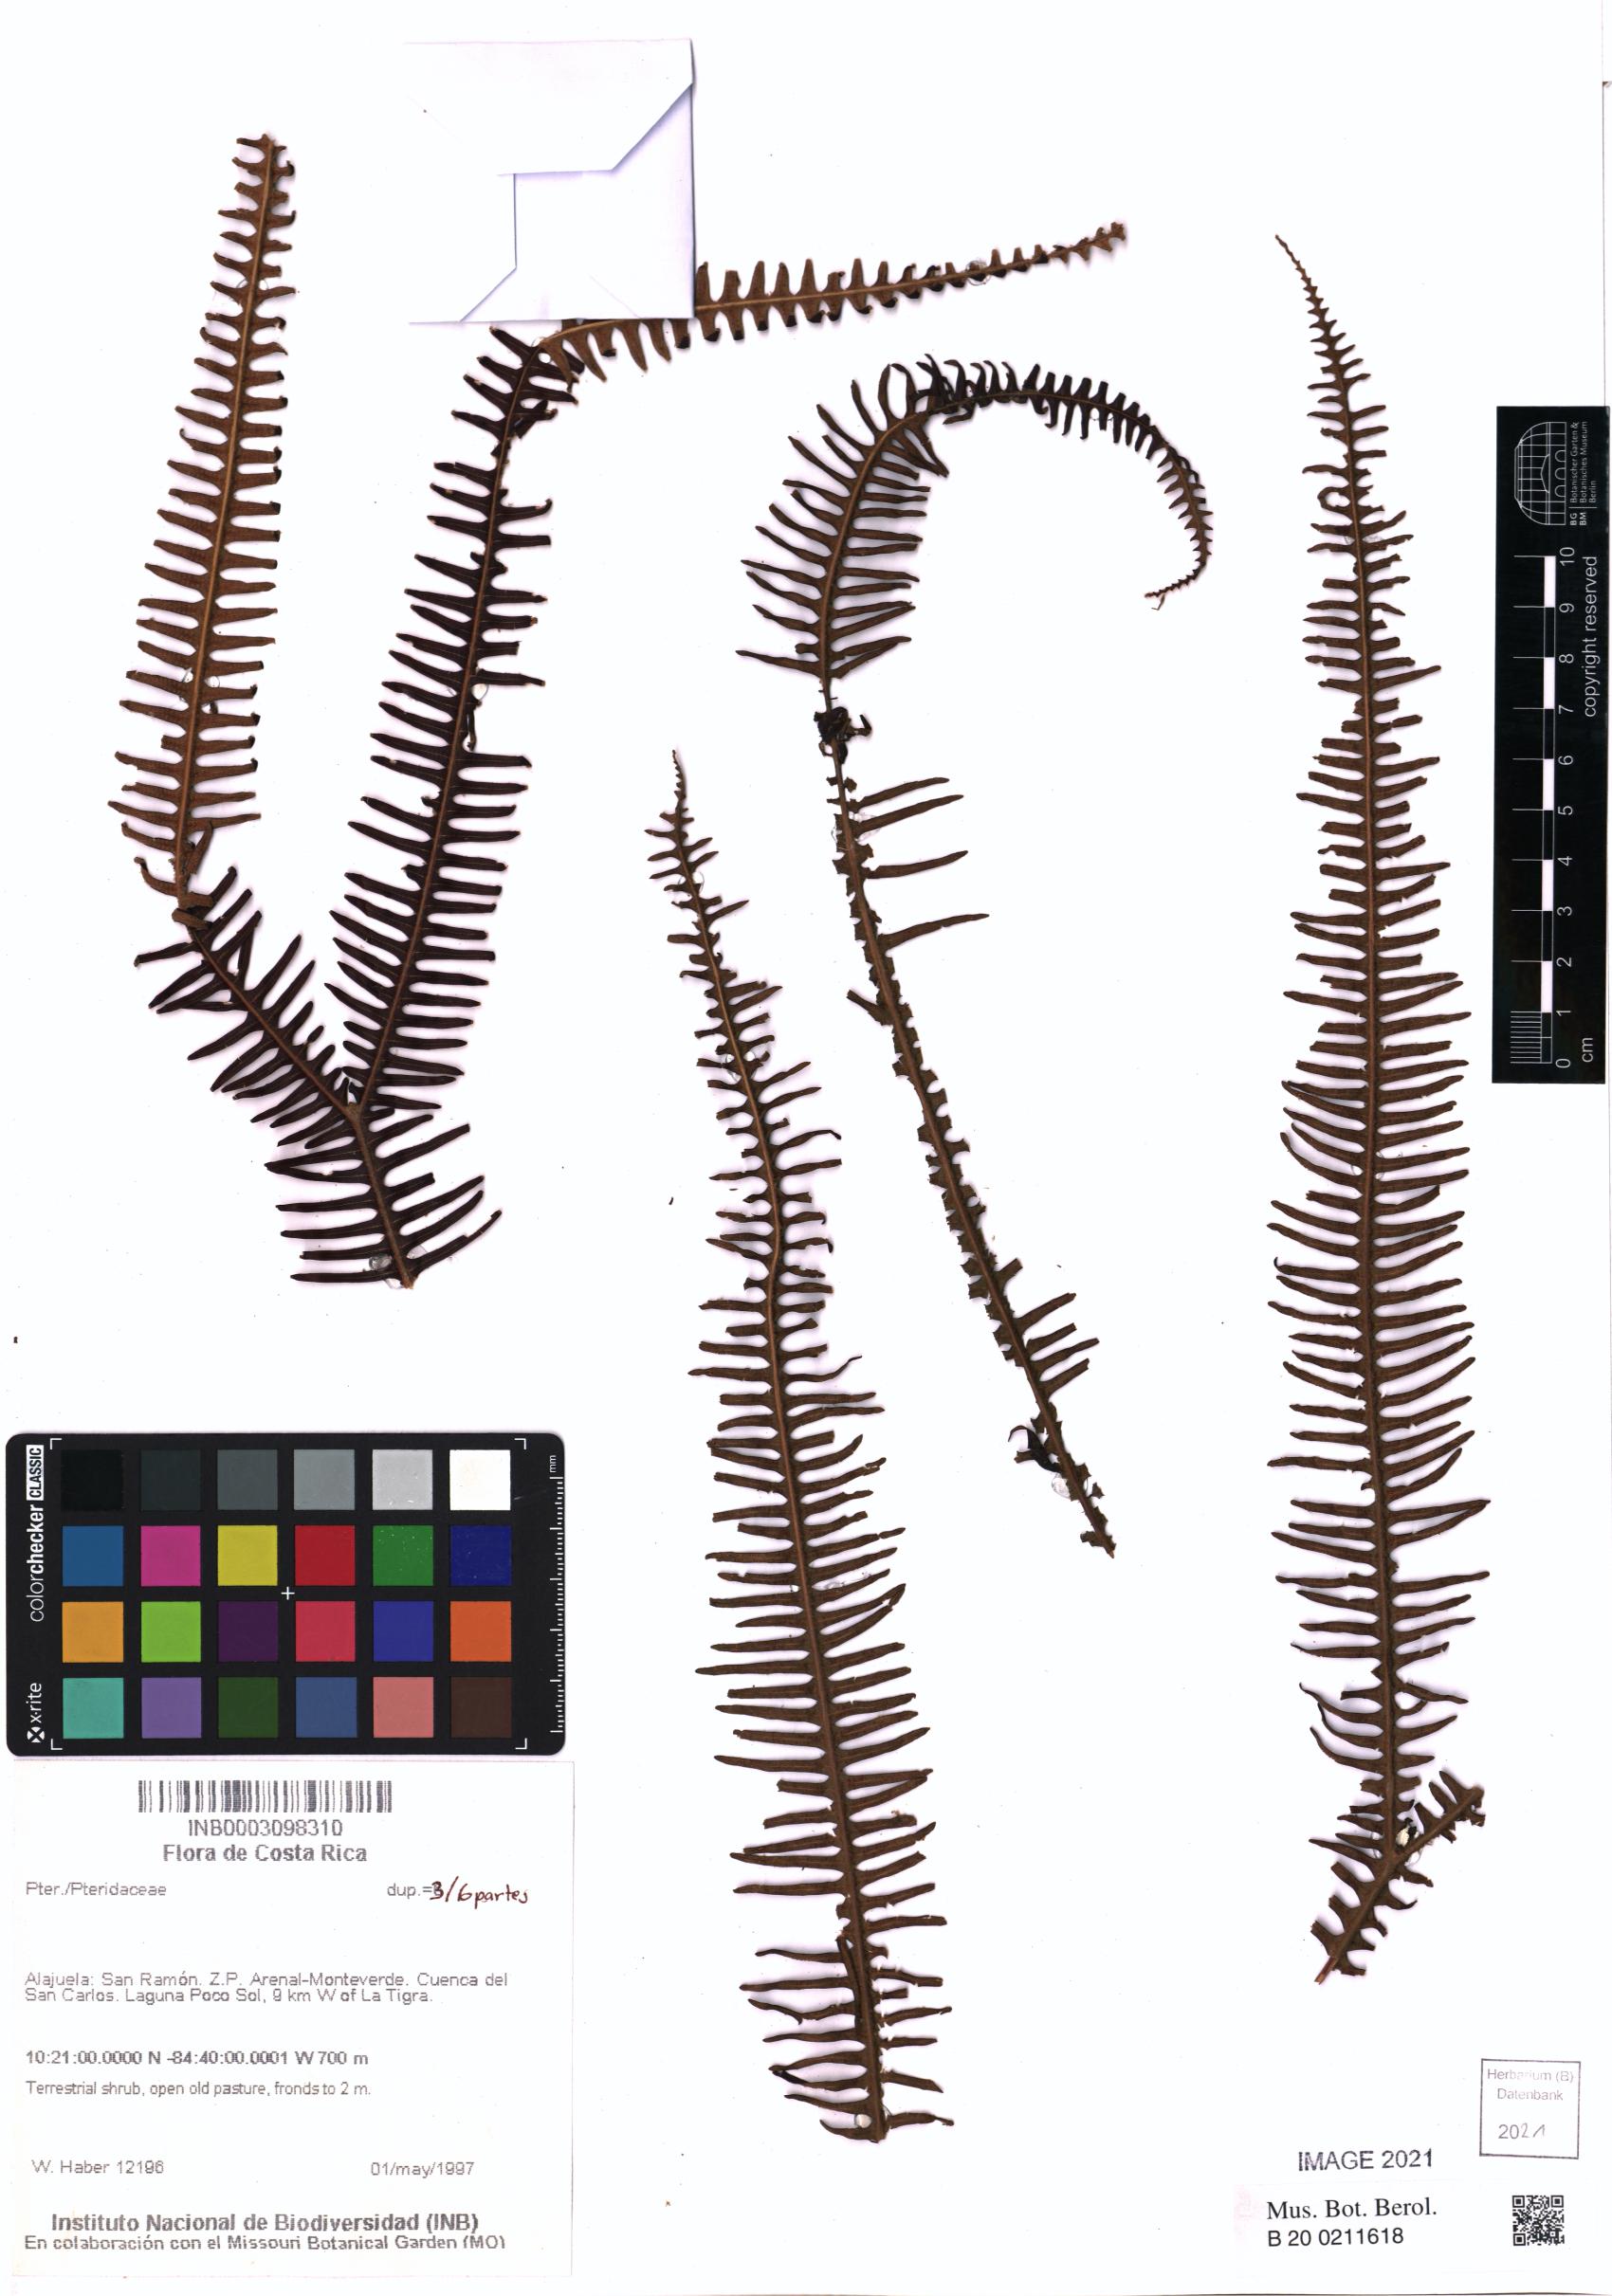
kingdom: Plantae
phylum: Tracheophyta
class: Polypodiopsida
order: Polypodiales
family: Pteridaceae
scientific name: Pteridaceae
